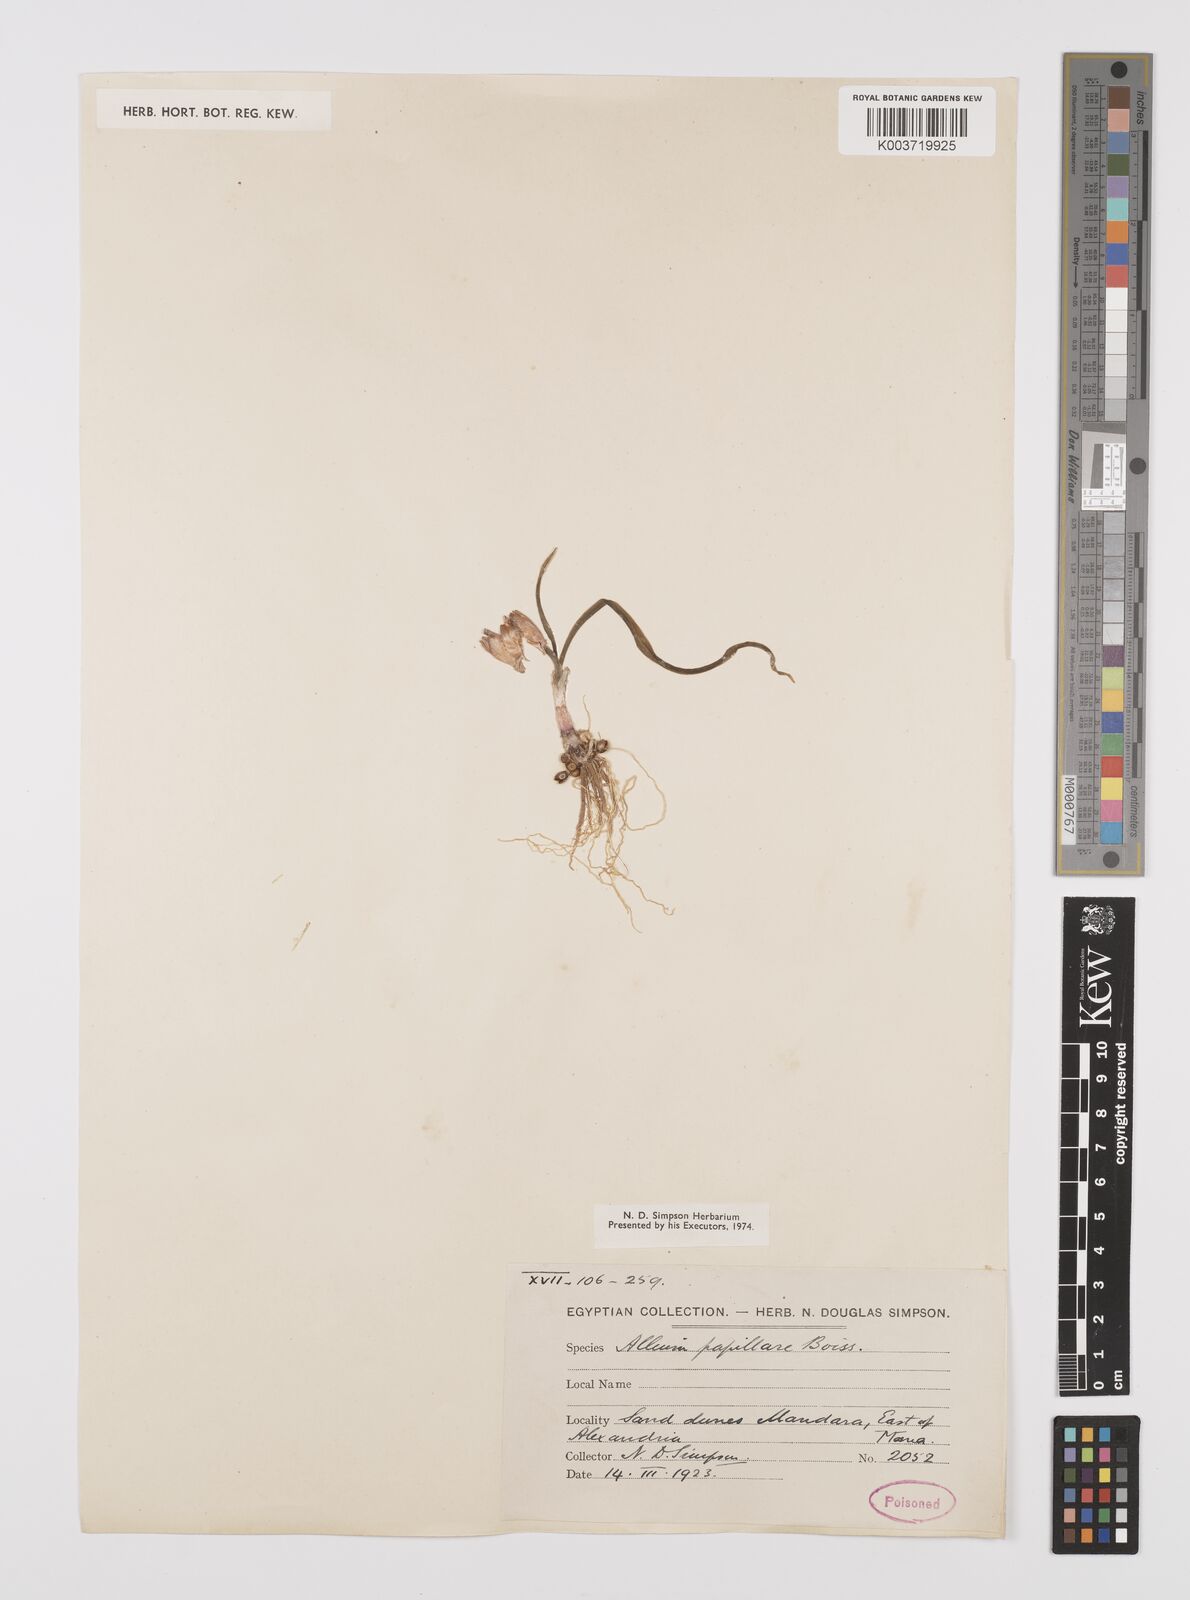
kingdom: Plantae
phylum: Tracheophyta
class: Liliopsida
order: Asparagales
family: Amaryllidaceae
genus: Allium
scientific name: Allium papillare
